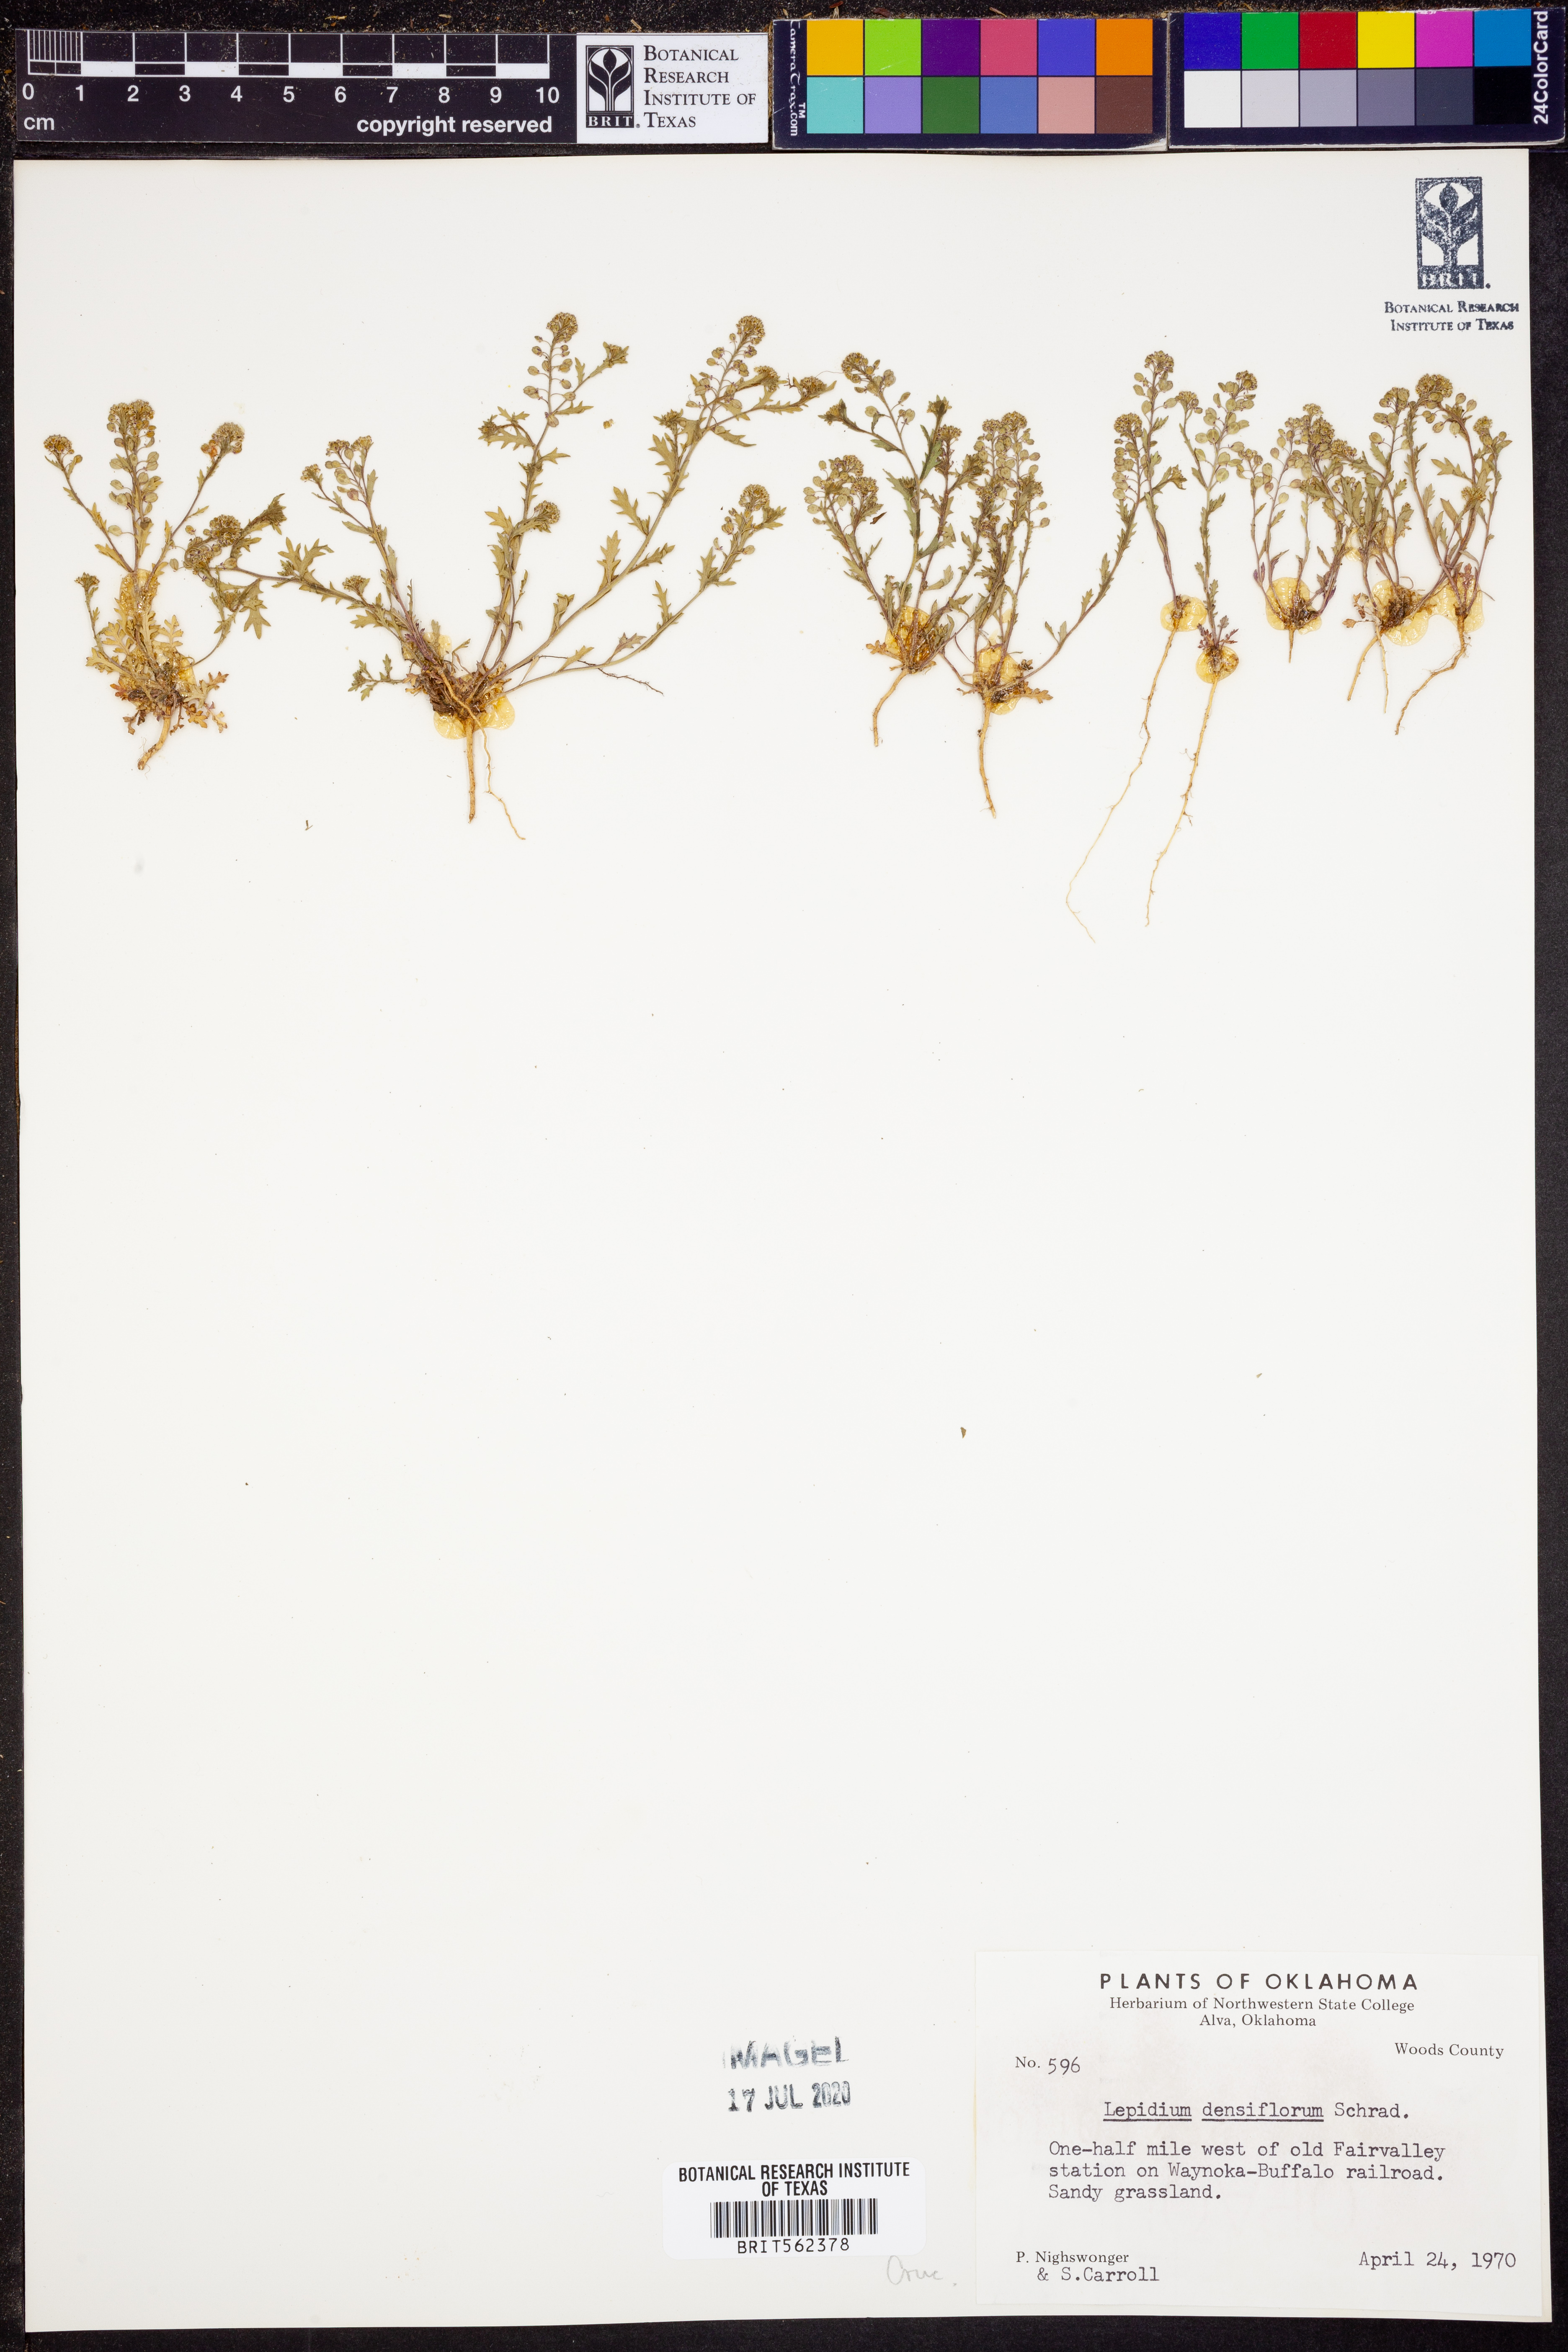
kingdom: Plantae
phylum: Tracheophyta
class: Magnoliopsida
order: Brassicales
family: Brassicaceae
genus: Lepidium
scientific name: Lepidium densiflorum
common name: Miner's pepperwort
